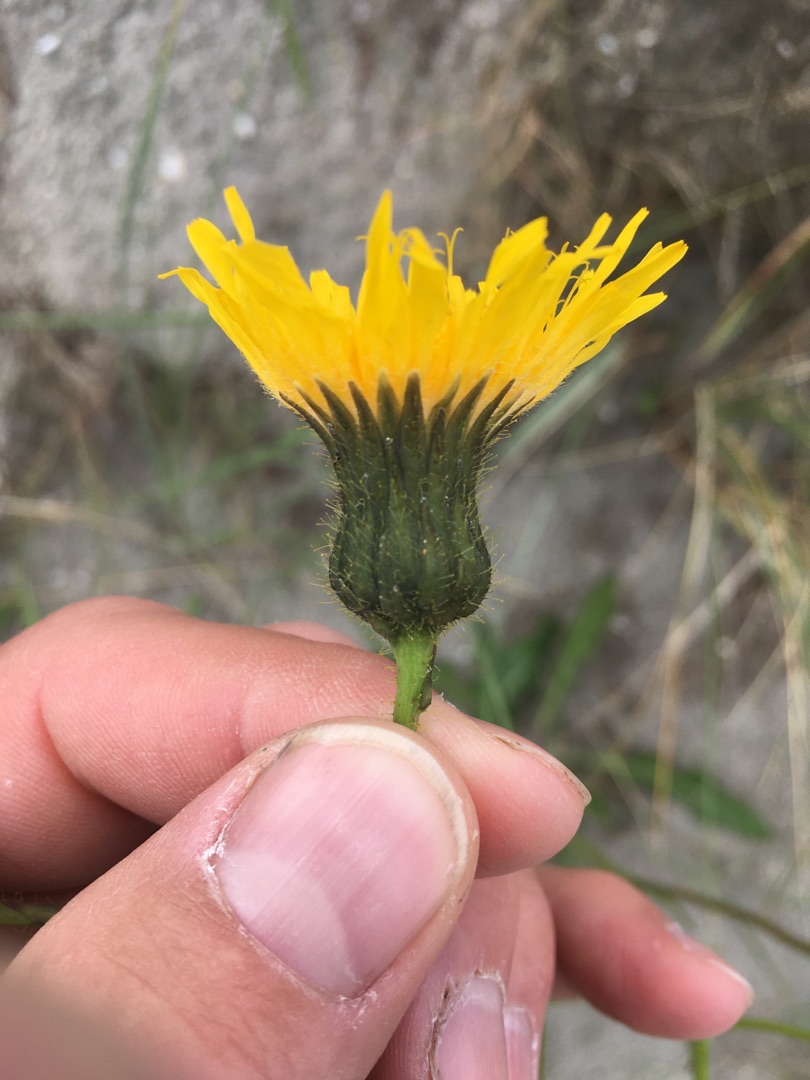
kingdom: Plantae
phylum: Tracheophyta
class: Magnoliopsida
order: Asterales
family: Asteraceae
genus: Sonchus
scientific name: Sonchus arvensis
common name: Ager-svinemælk
